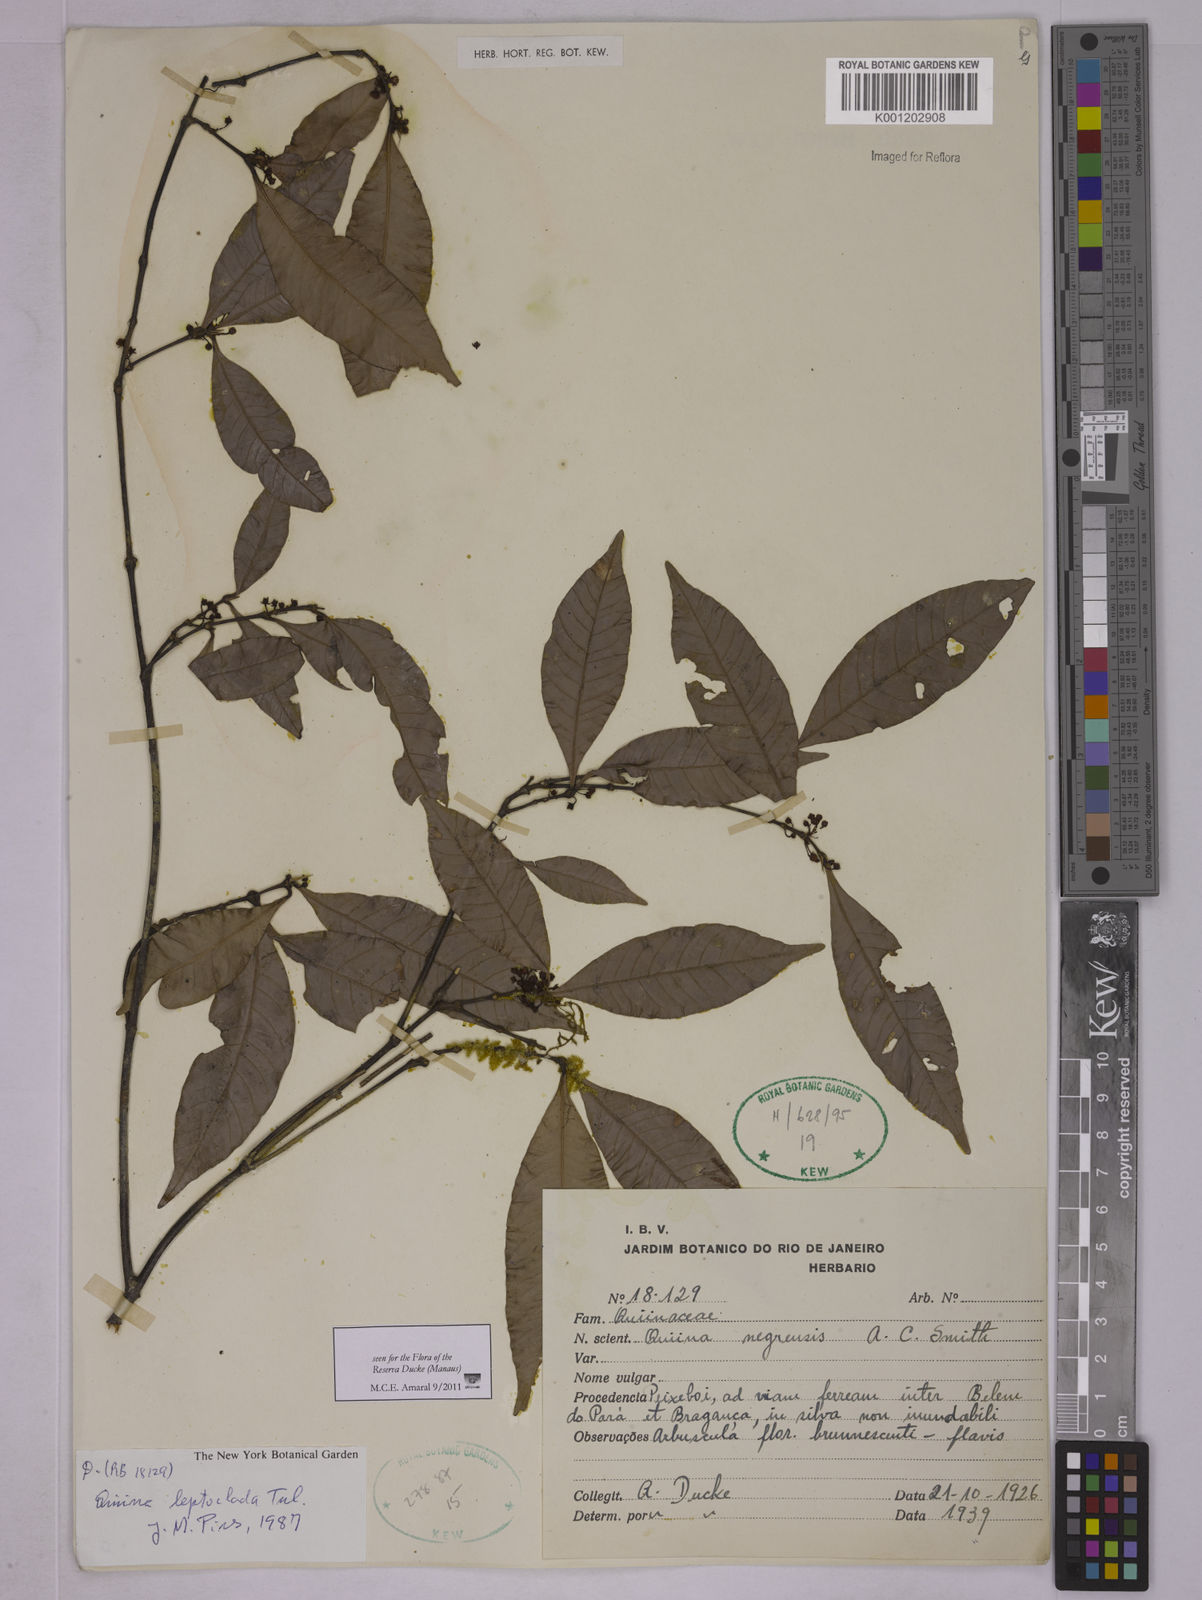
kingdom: Plantae
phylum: Tracheophyta
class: Magnoliopsida
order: Malpighiales
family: Quiinaceae
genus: Quiina
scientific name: Quiina leptoclada
